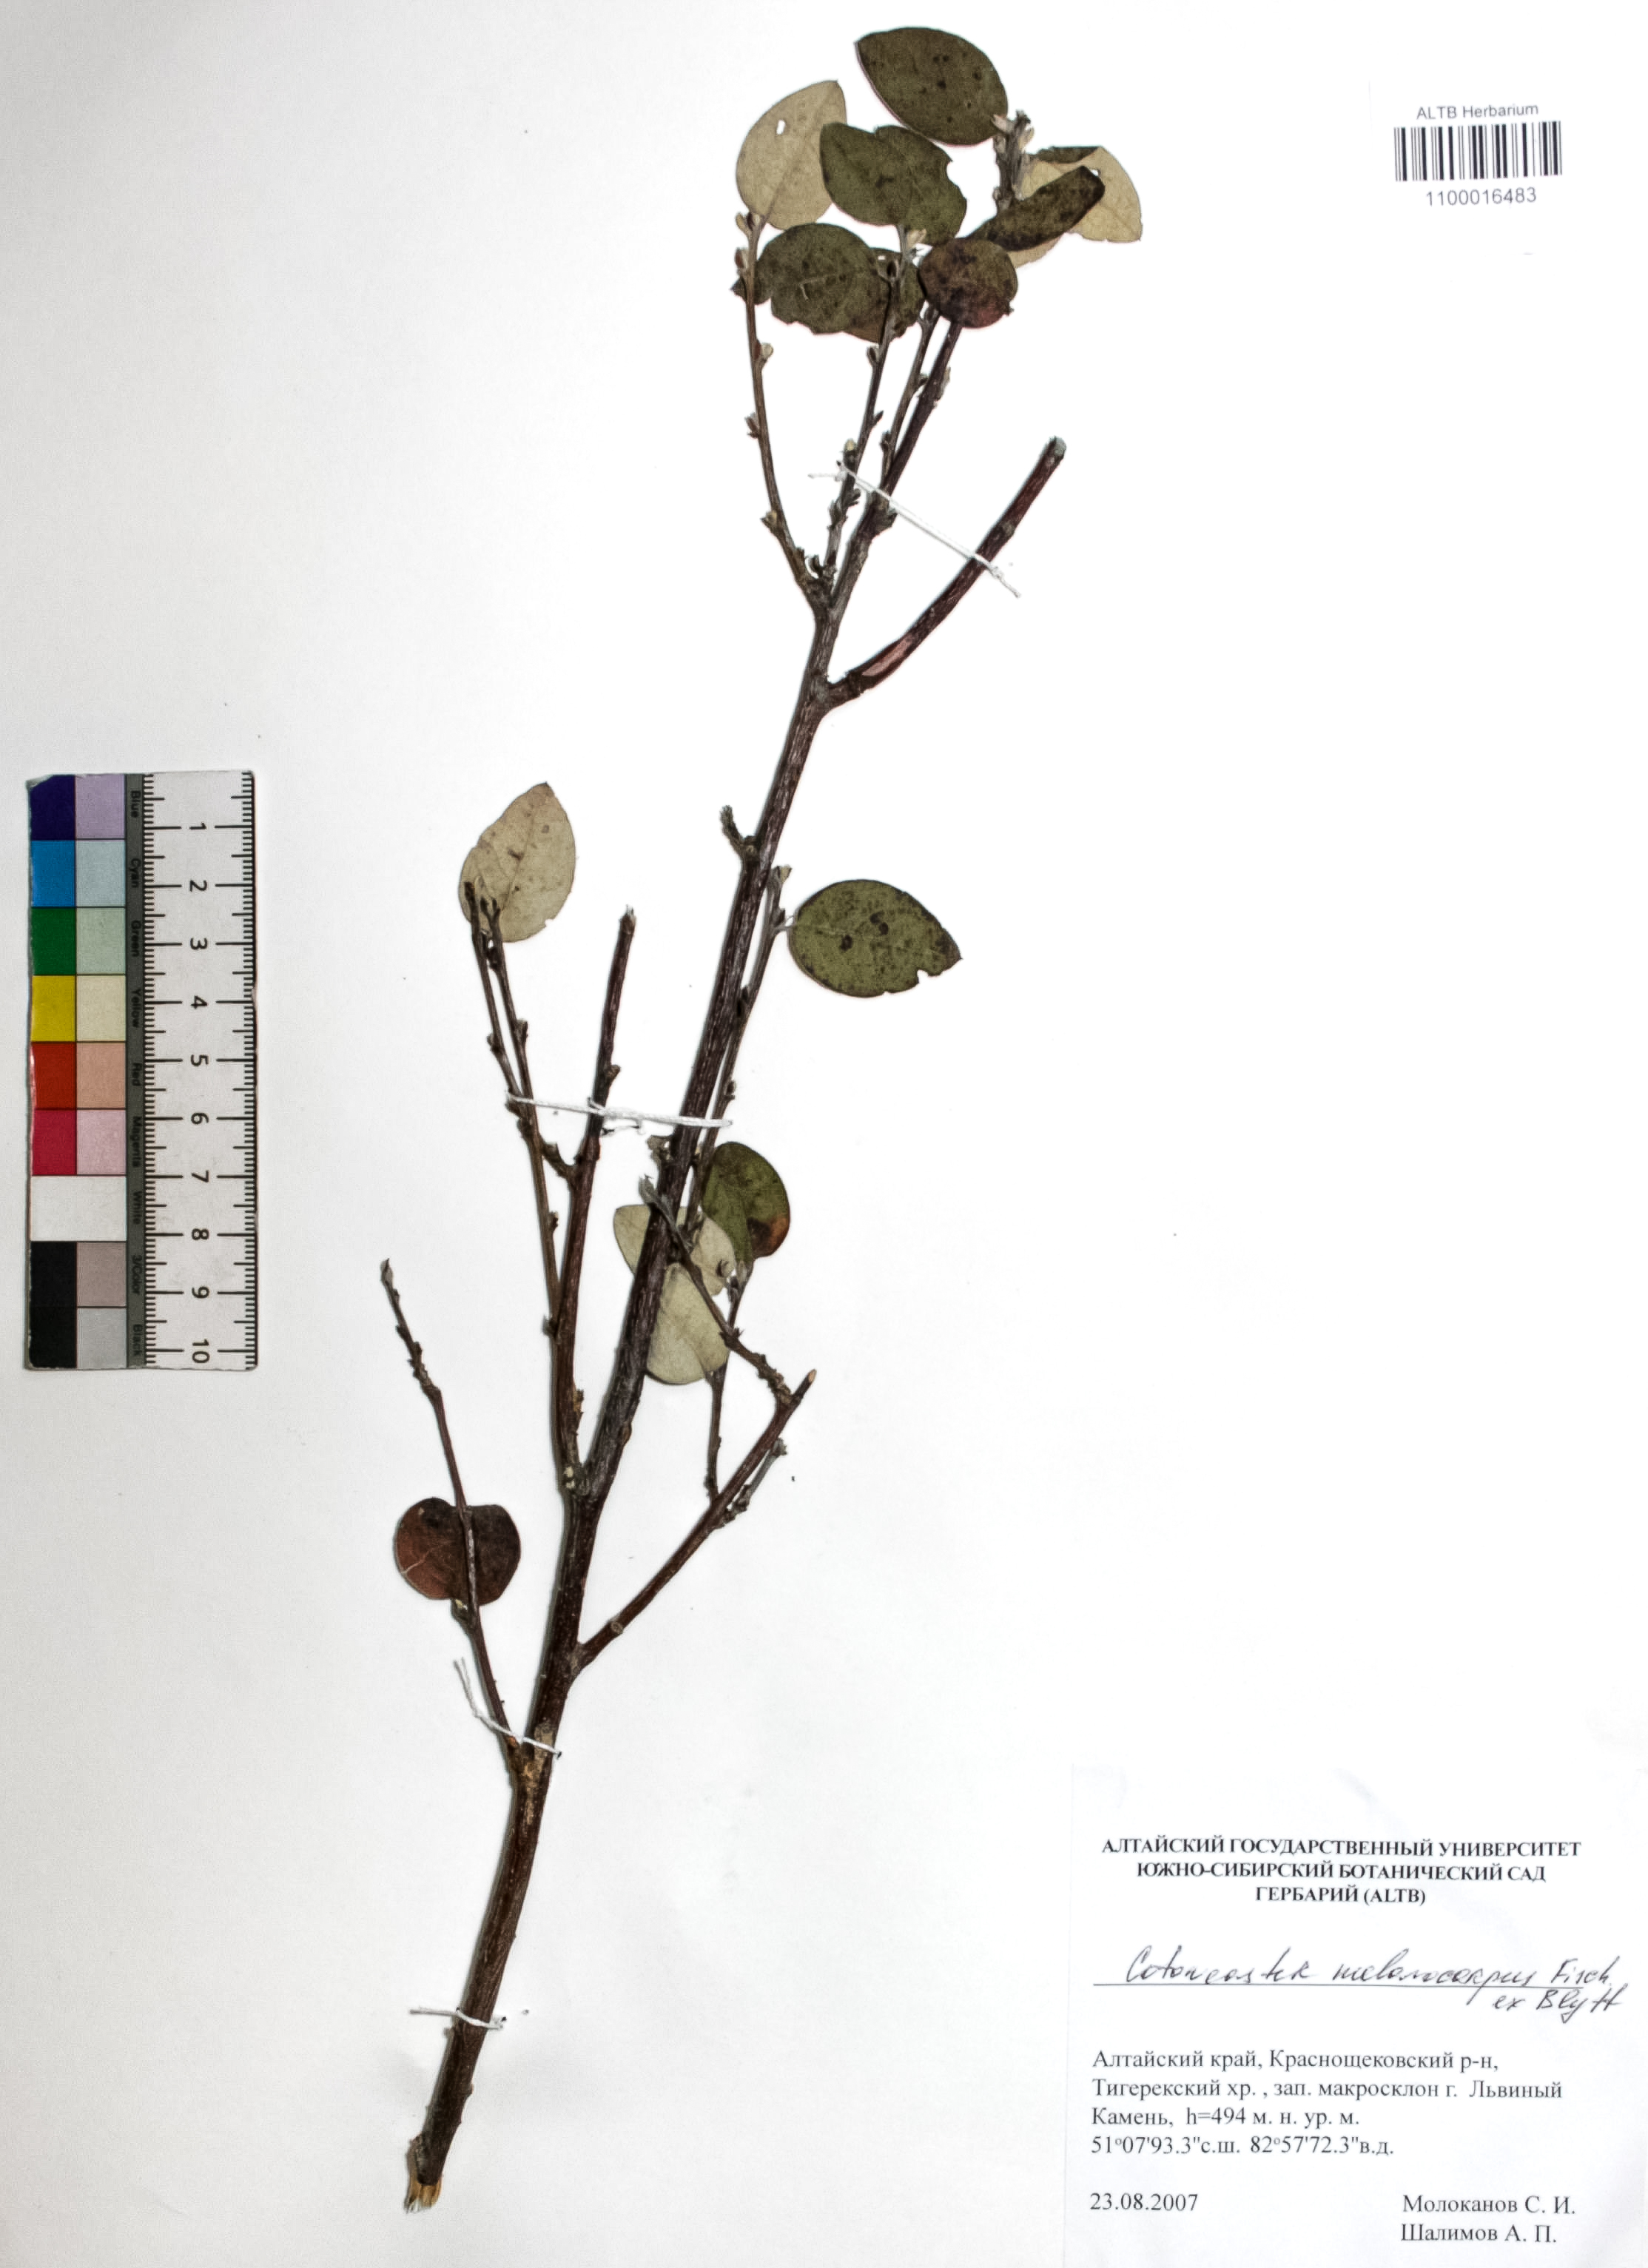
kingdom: Plantae
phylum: Tracheophyta
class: Magnoliopsida
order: Rosales
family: Rosaceae
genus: Cotoneaster
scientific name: Cotoneaster niger
